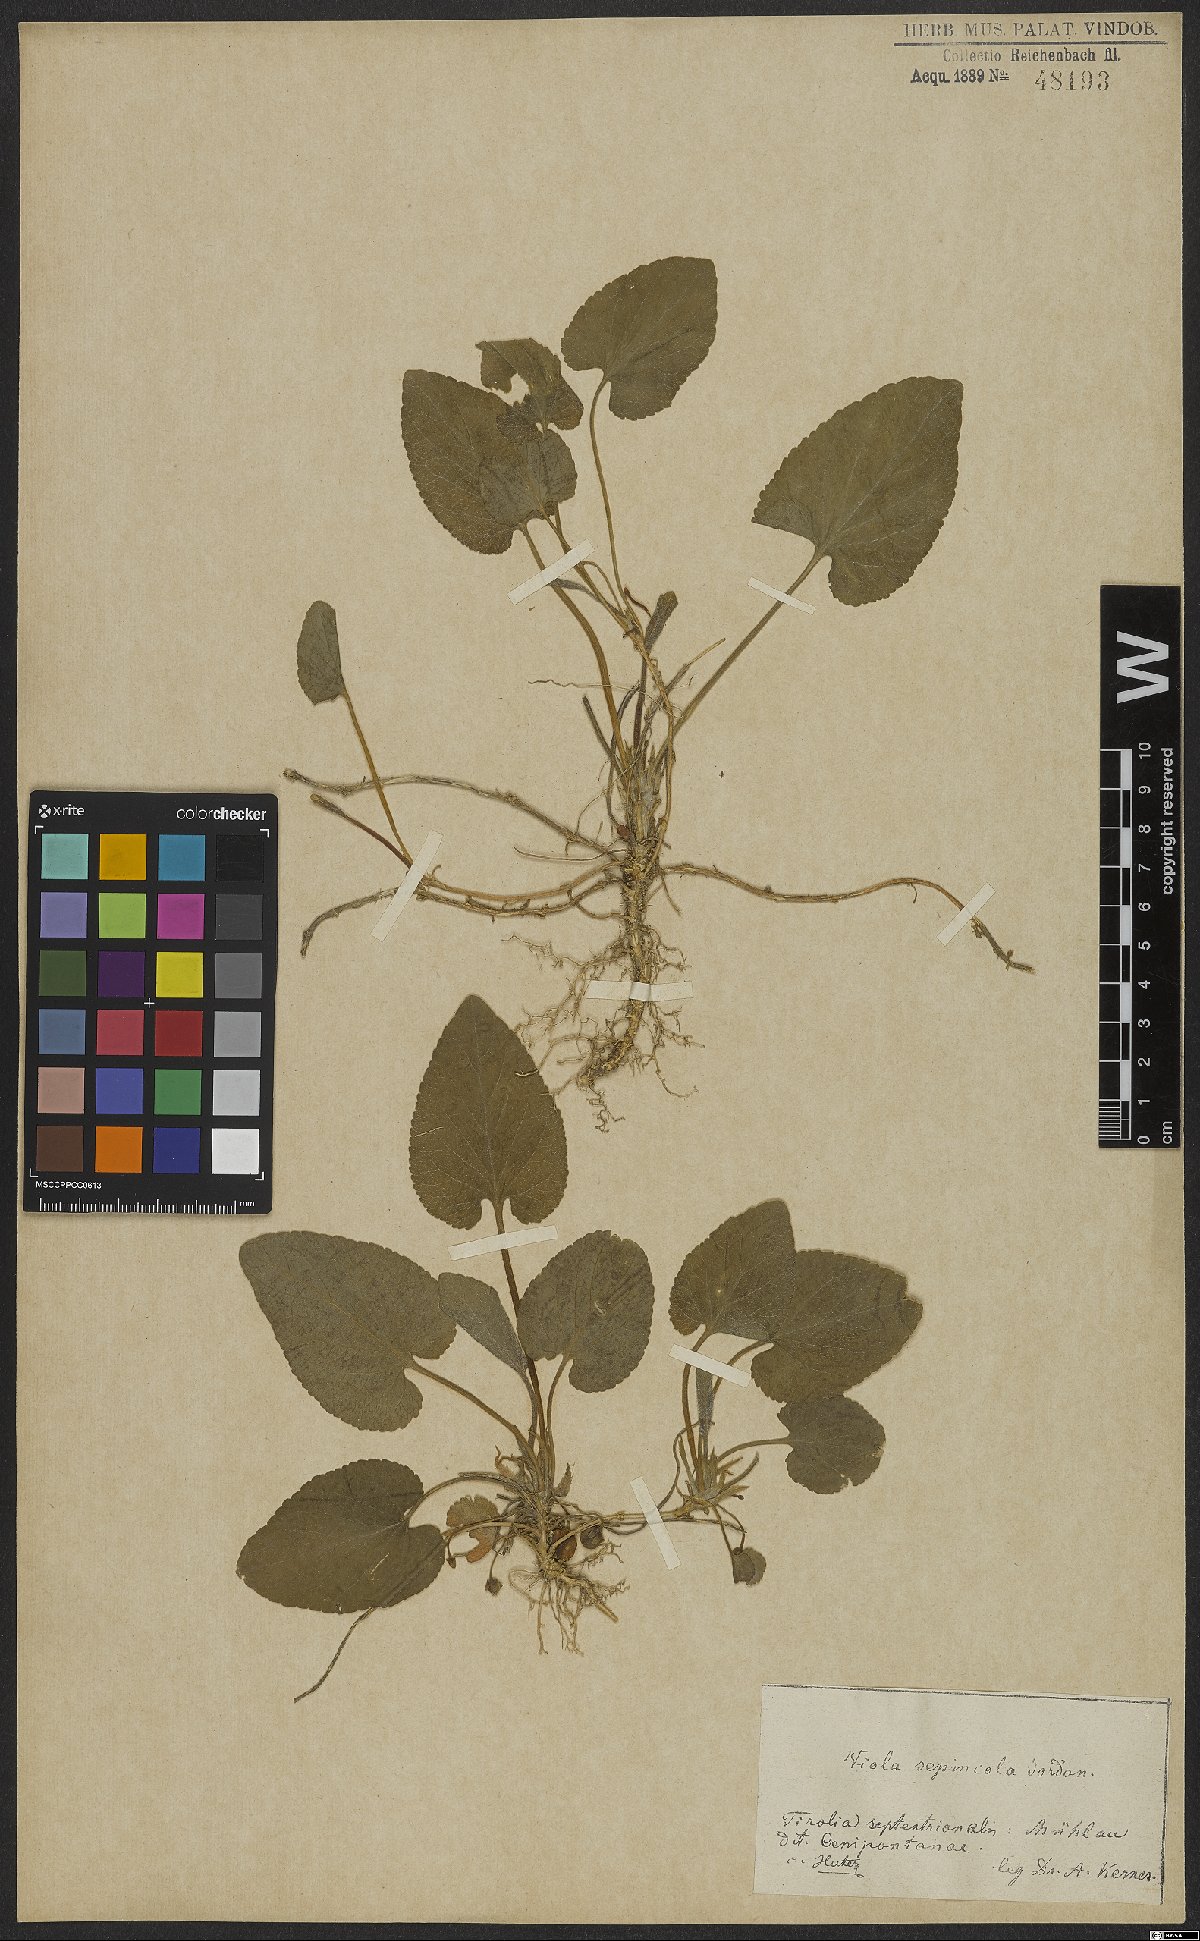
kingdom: Plantae
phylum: Tracheophyta
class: Magnoliopsida
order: Malpighiales
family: Violaceae
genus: Viola
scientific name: Viola suavis
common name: Russian violet
